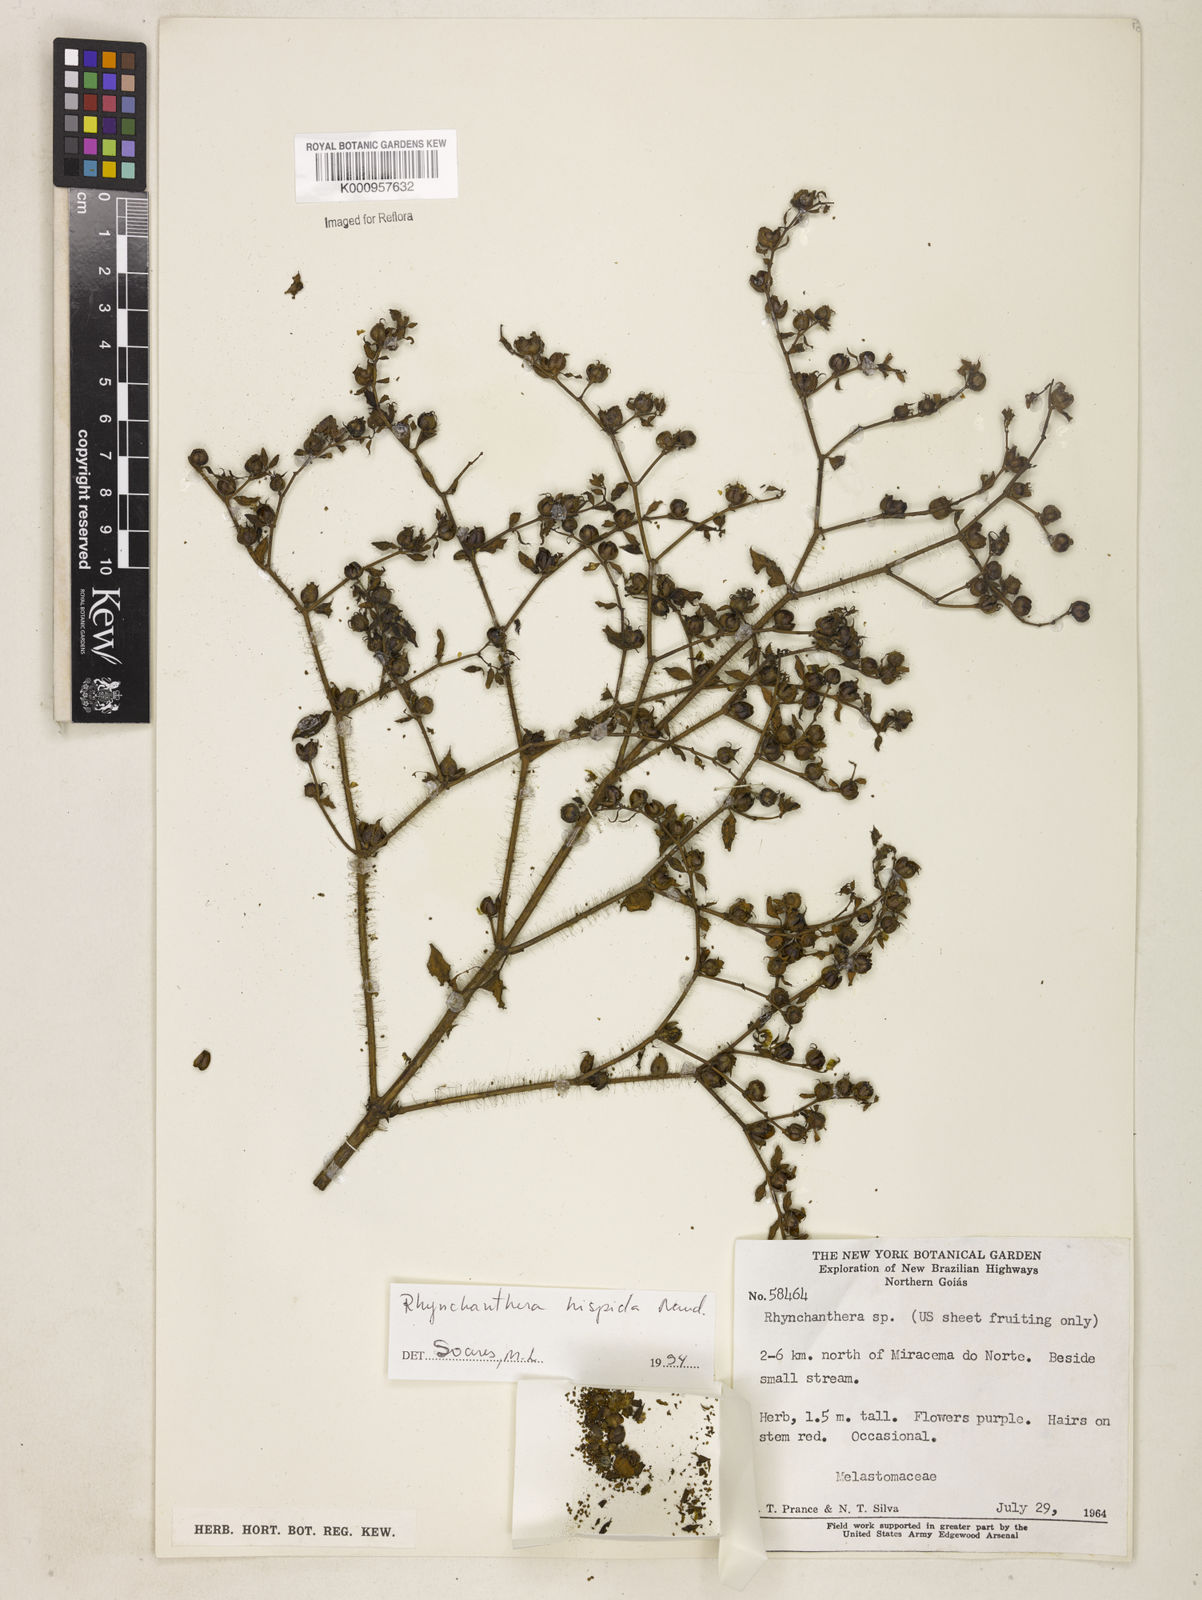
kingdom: Plantae
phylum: Tracheophyta
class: Magnoliopsida
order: Myrtales
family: Melastomataceae
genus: Rhynchanthera
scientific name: Rhynchanthera hispida
